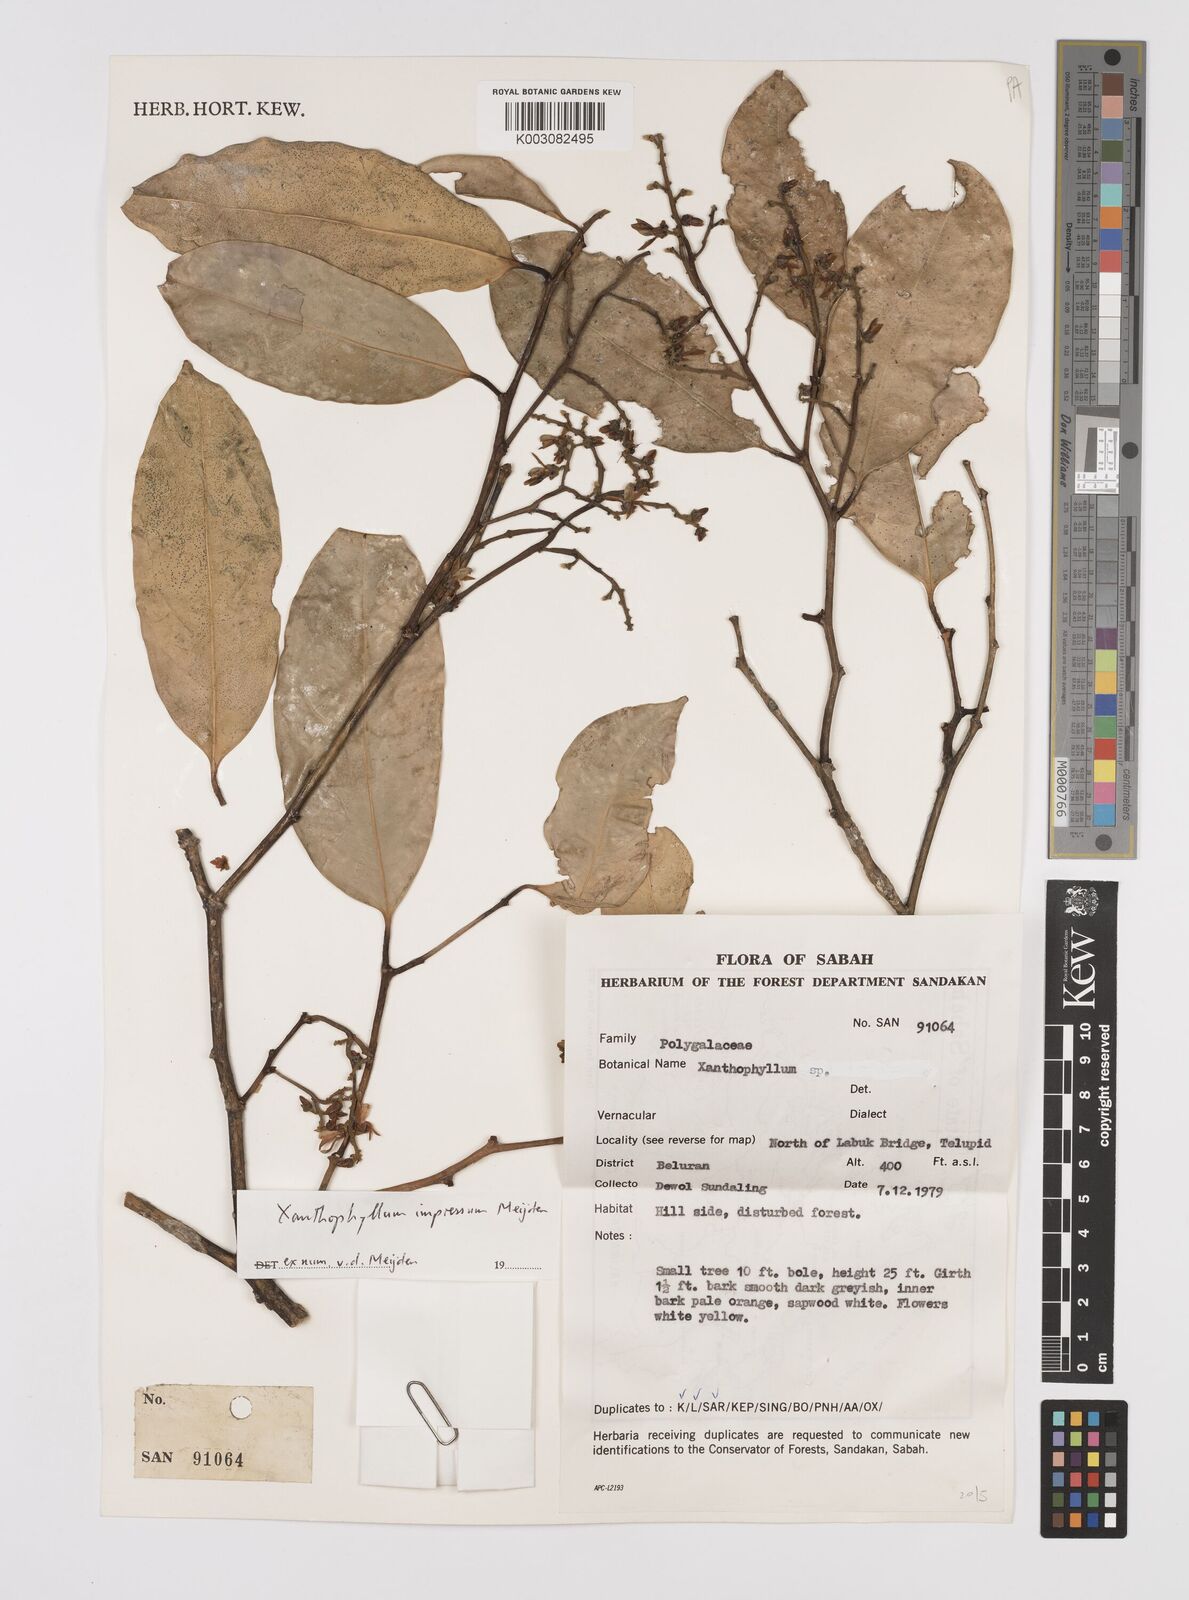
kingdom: Plantae
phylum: Tracheophyta
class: Magnoliopsida
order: Fabales
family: Polygalaceae
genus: Xanthophyllum
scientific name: Xanthophyllum impressum
